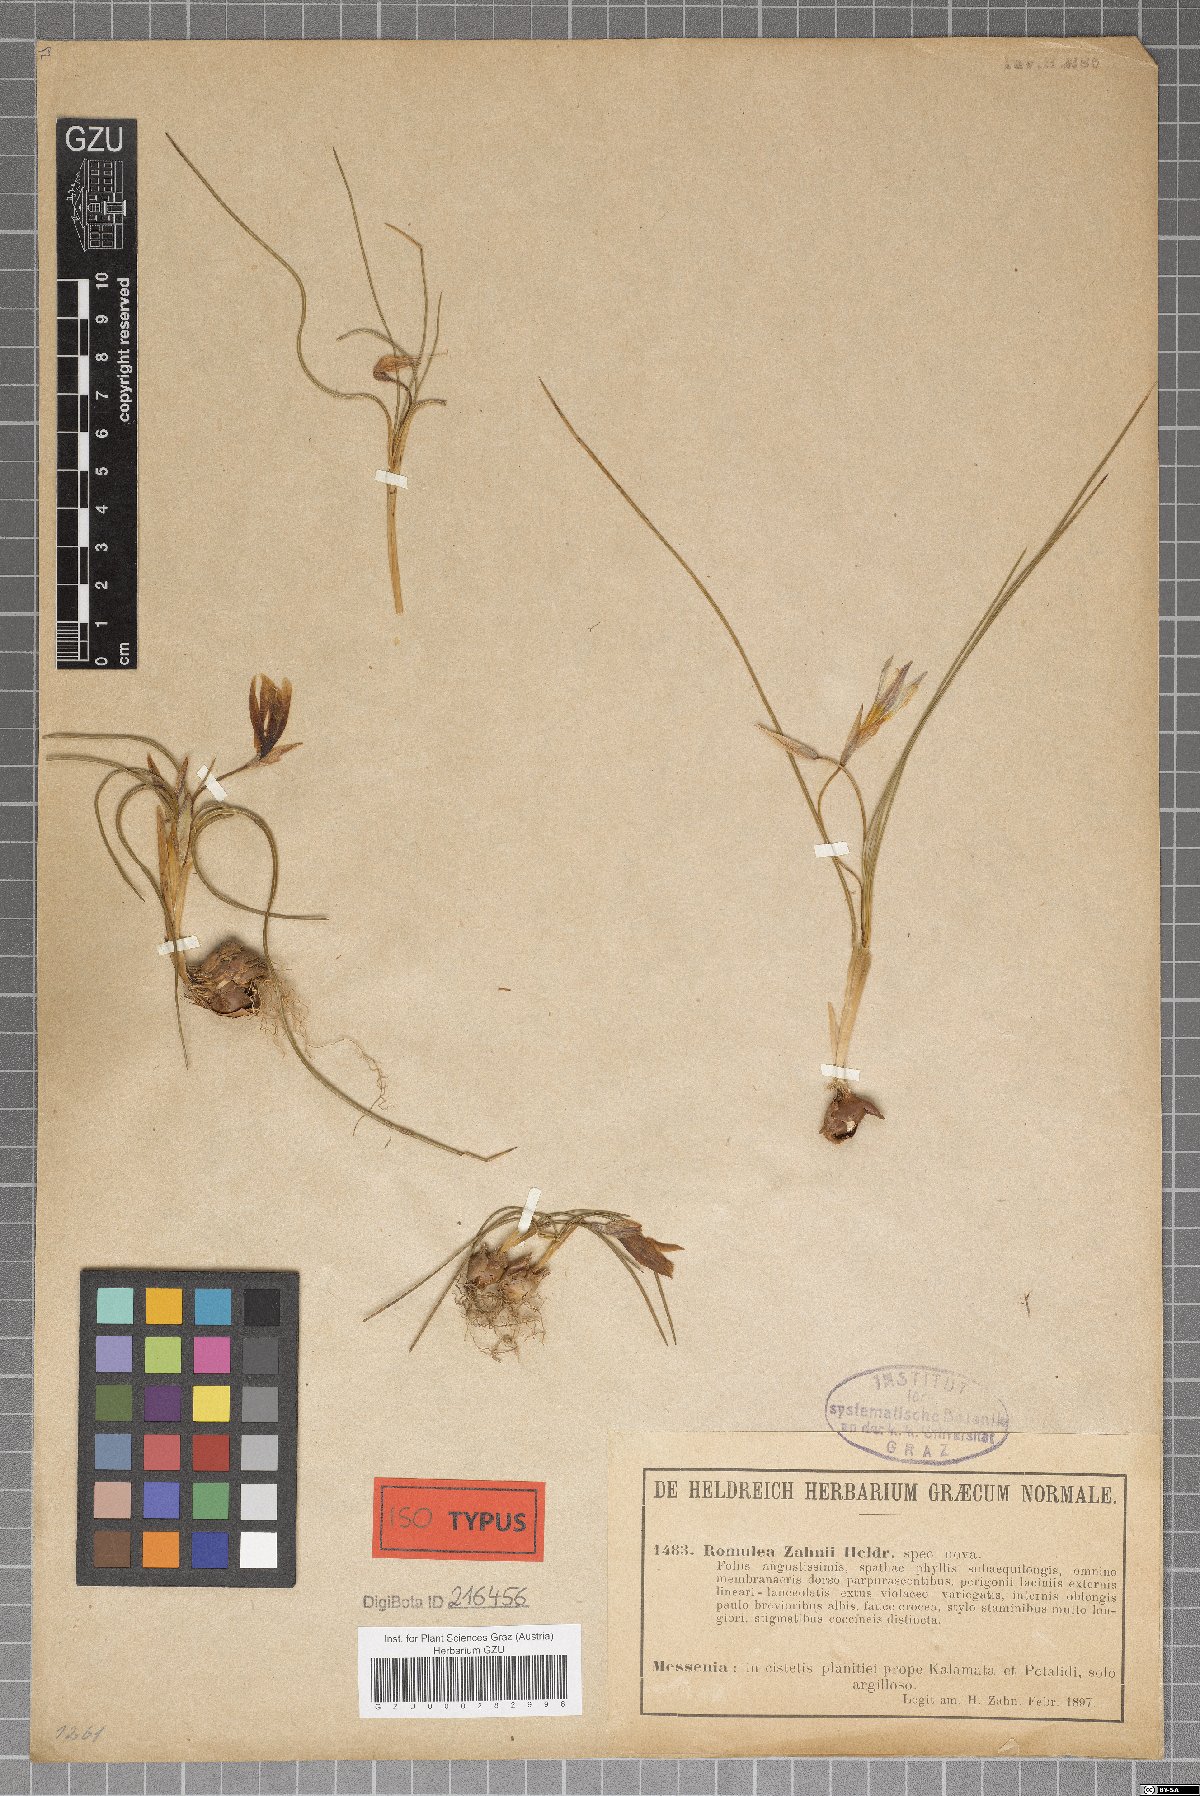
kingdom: Plantae
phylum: Tracheophyta
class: Liliopsida
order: Asparagales
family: Iridaceae
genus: Romulea
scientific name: Romulea bulbocodium
